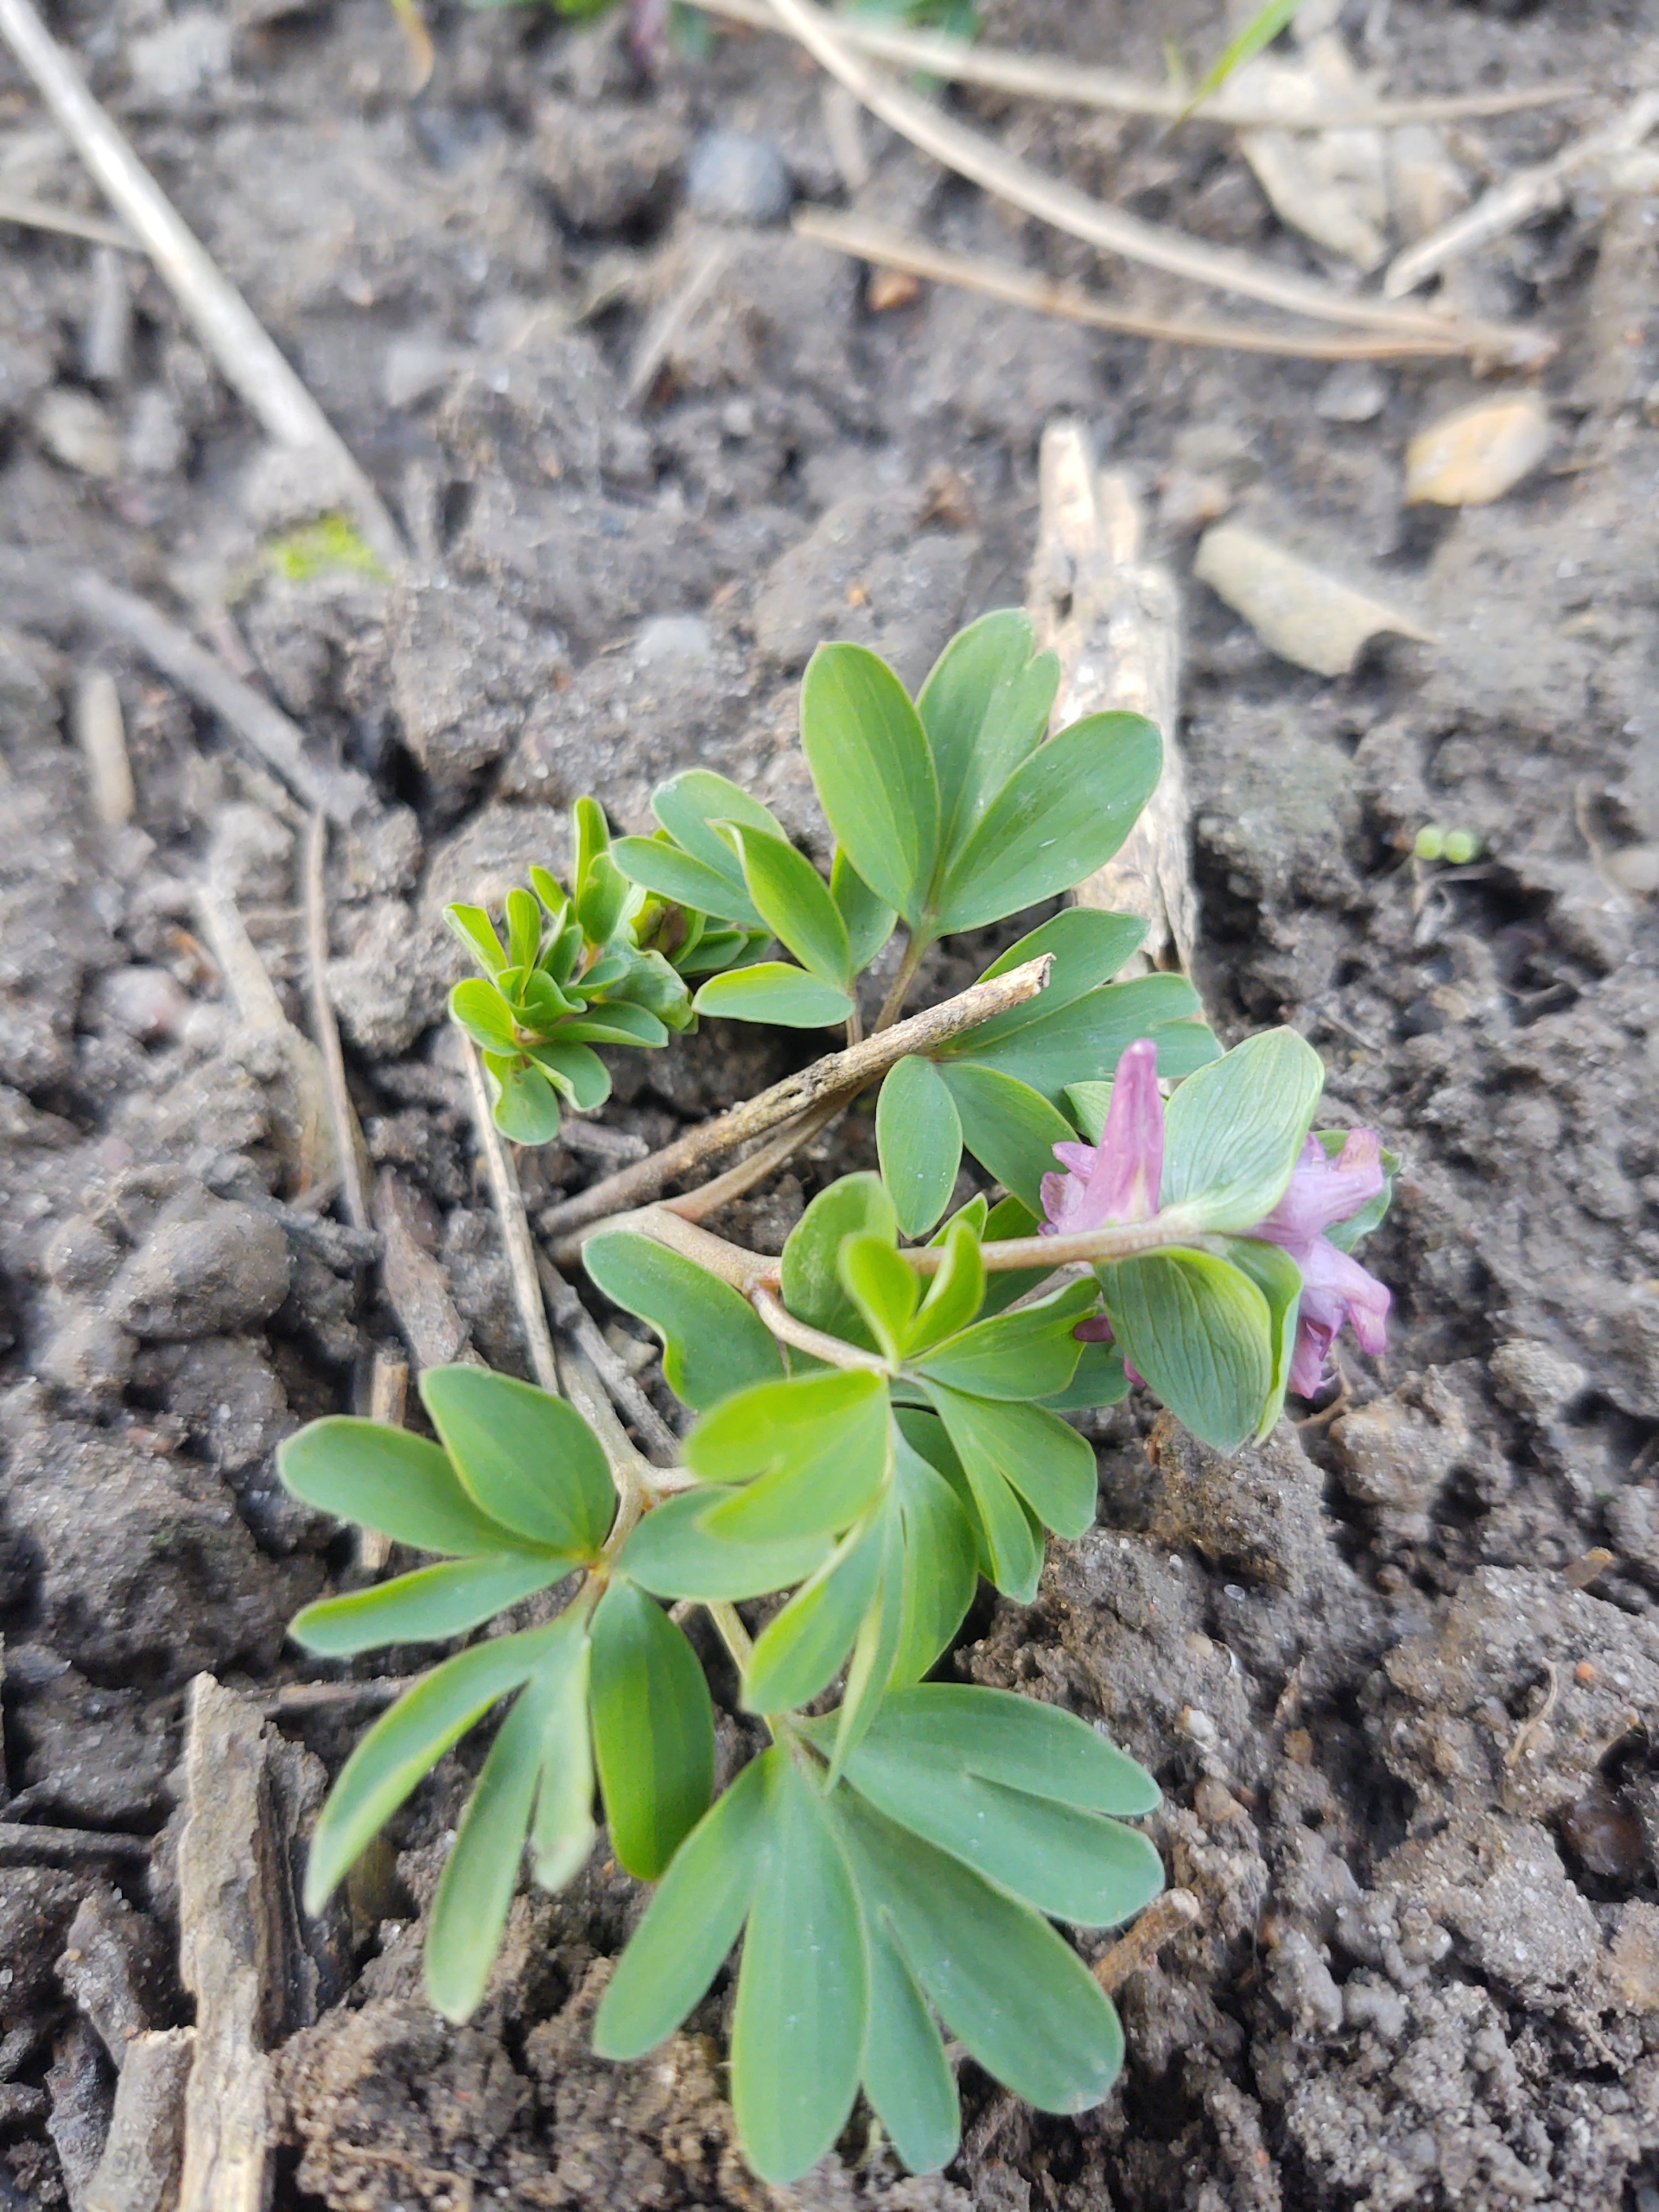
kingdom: Plantae
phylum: Tracheophyta
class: Magnoliopsida
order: Ranunculales
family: Papaveraceae
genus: Corydalis
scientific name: Corydalis intermedia
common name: Liden lærkespore
